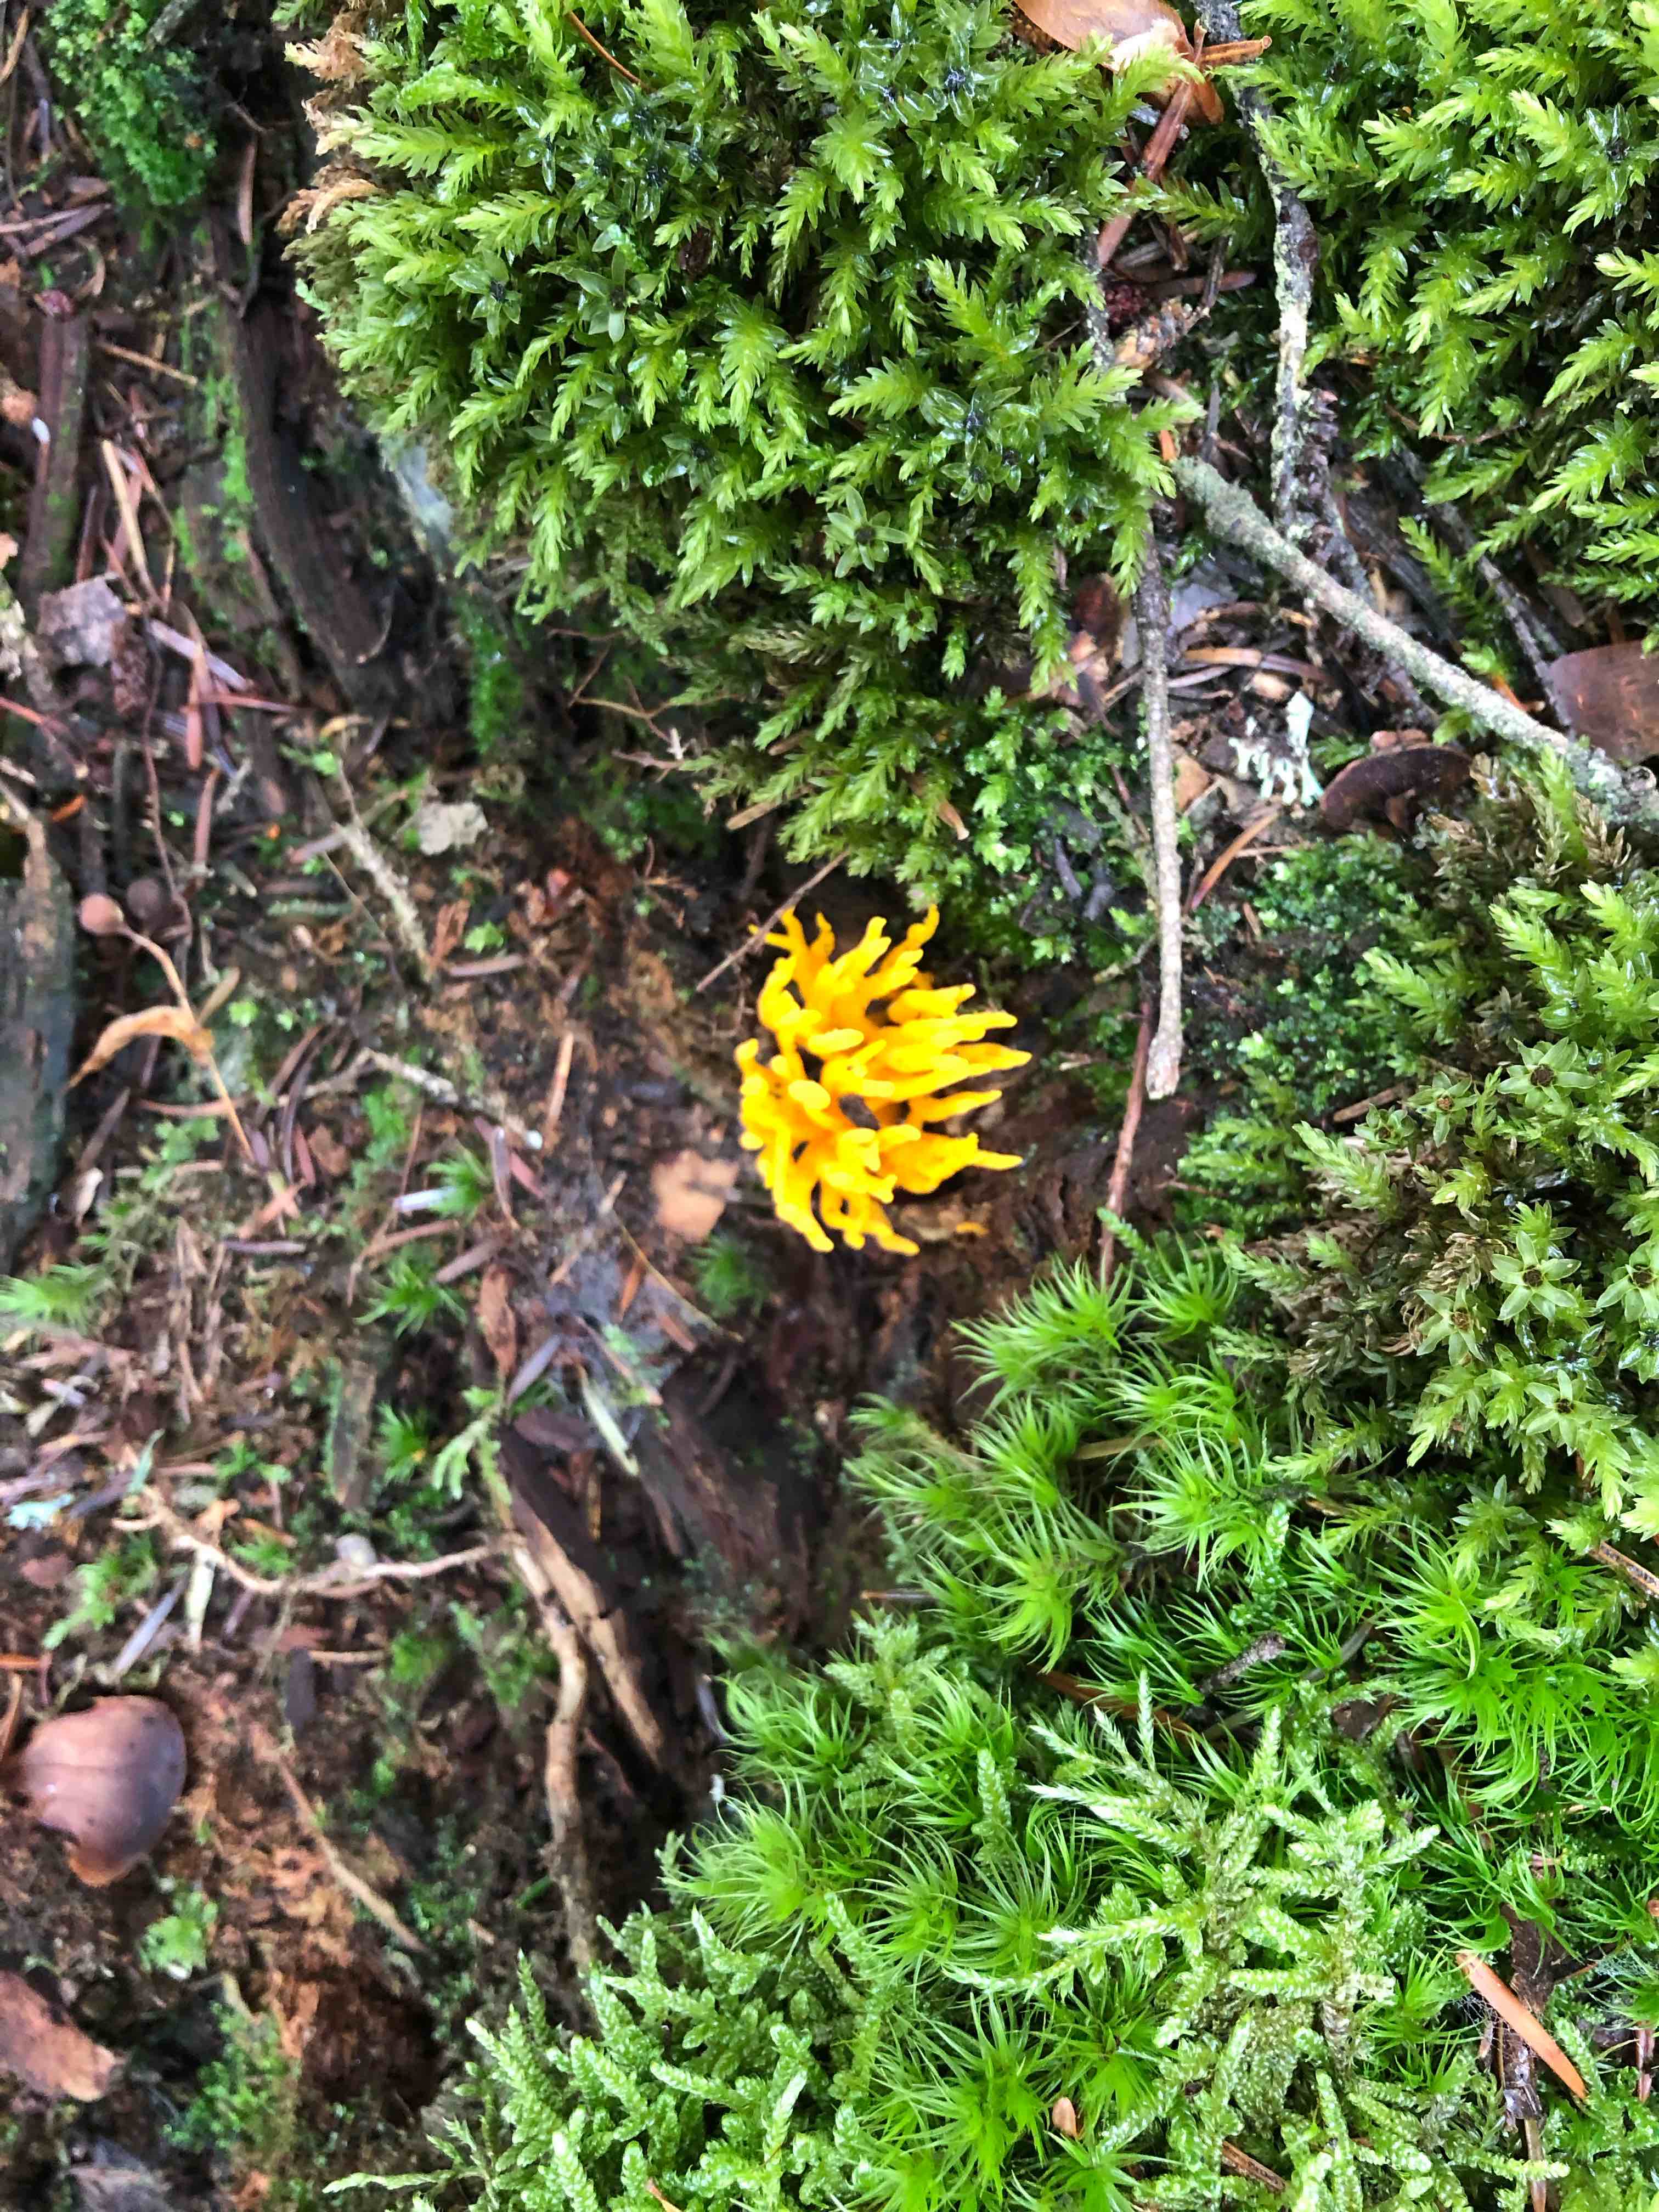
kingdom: Fungi
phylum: Basidiomycota
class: Dacrymycetes
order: Dacrymycetales
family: Dacrymycetaceae
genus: Calocera
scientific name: Calocera viscosa
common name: almindelig guldgaffel
